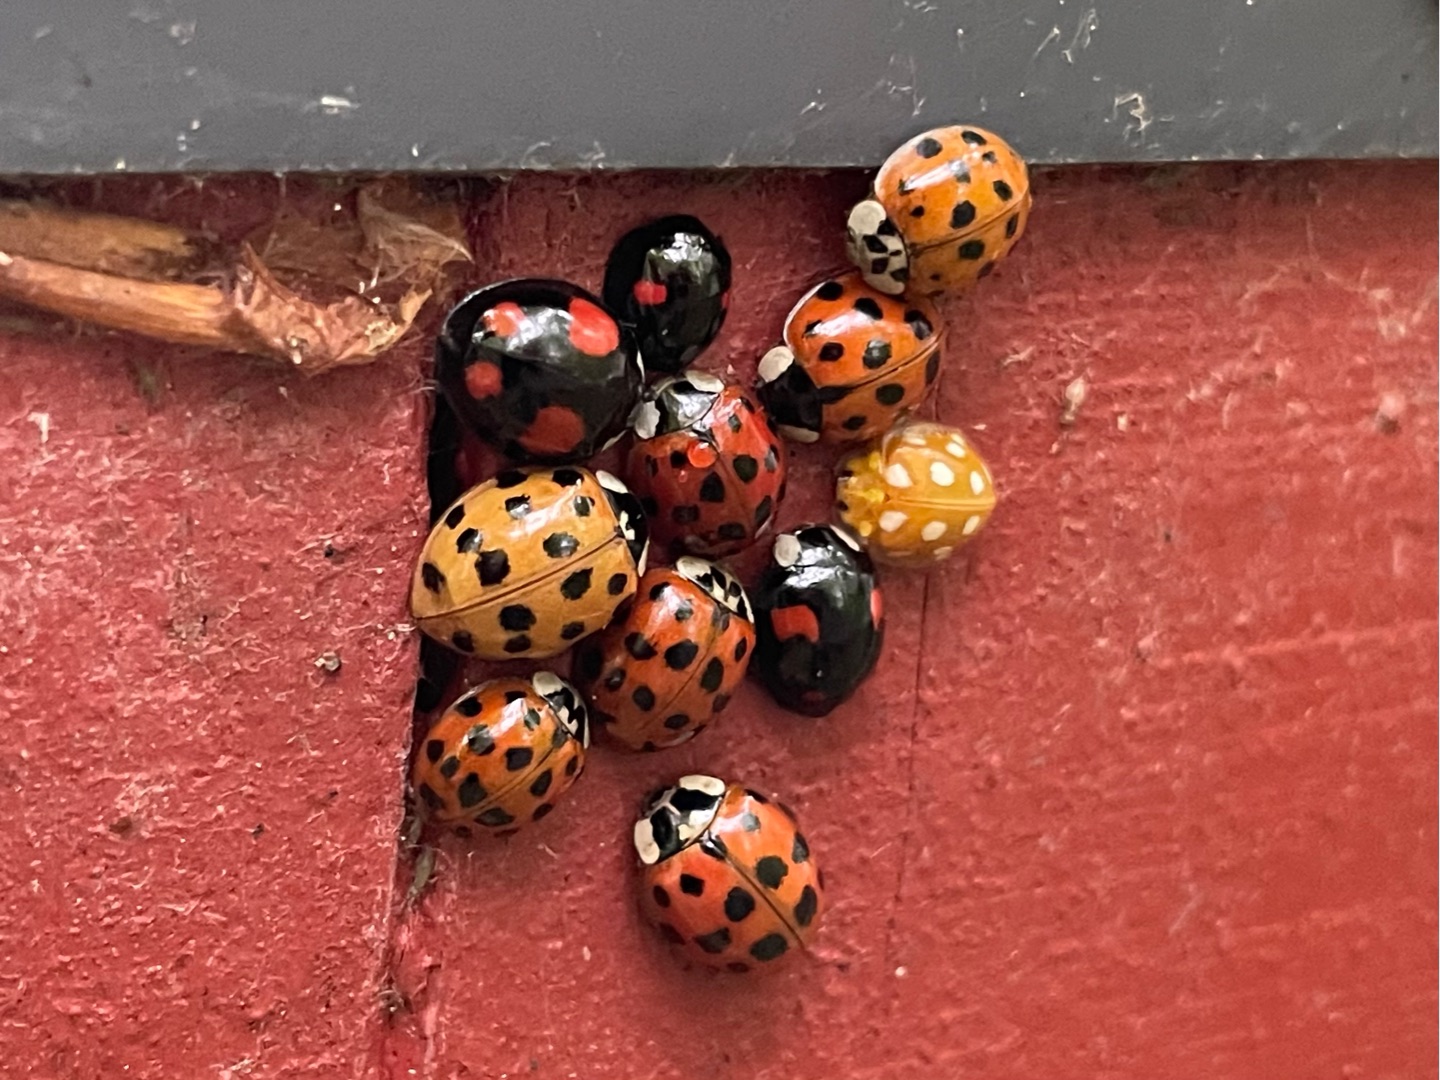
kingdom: Animalia
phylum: Arthropoda
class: Insecta
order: Coleoptera
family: Coccinellidae
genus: Harmonia
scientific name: Harmonia axyridis
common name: Harlekinmariehøne
